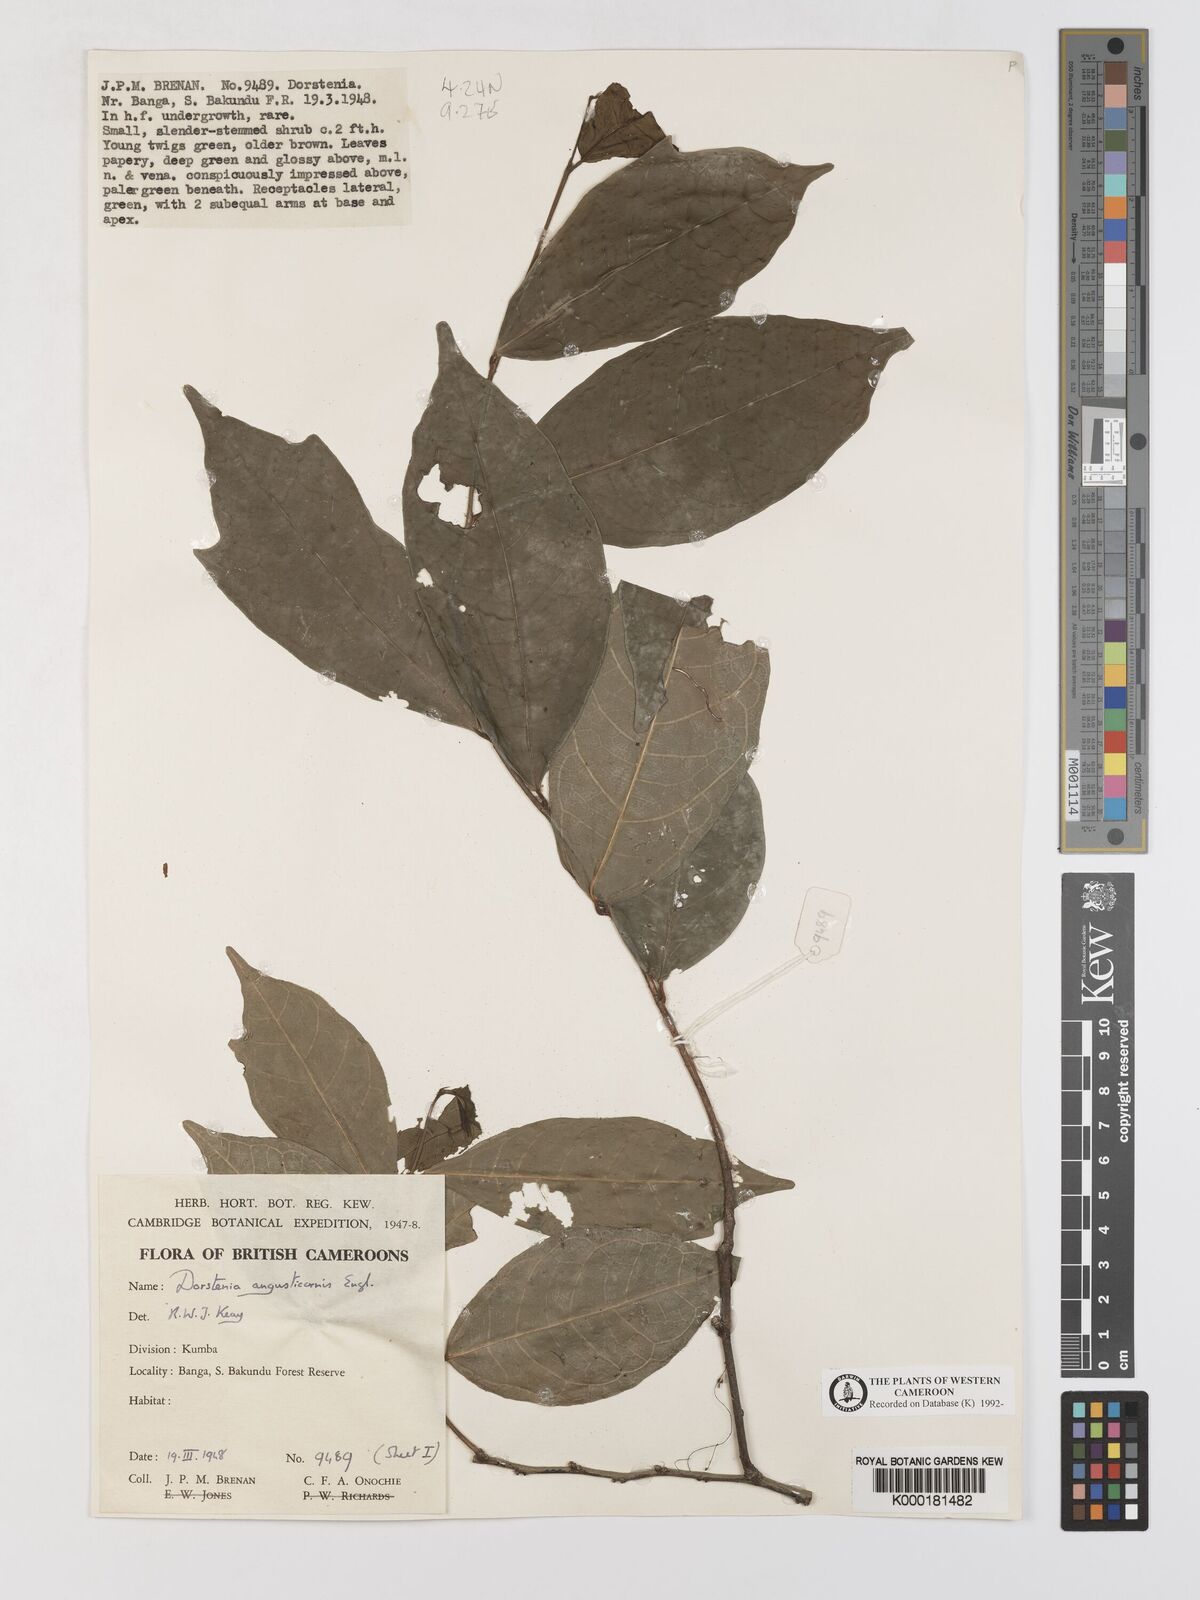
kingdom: Plantae
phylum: Tracheophyta
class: Magnoliopsida
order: Rosales
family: Moraceae
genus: Hijmania
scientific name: Hijmania angusticornis
